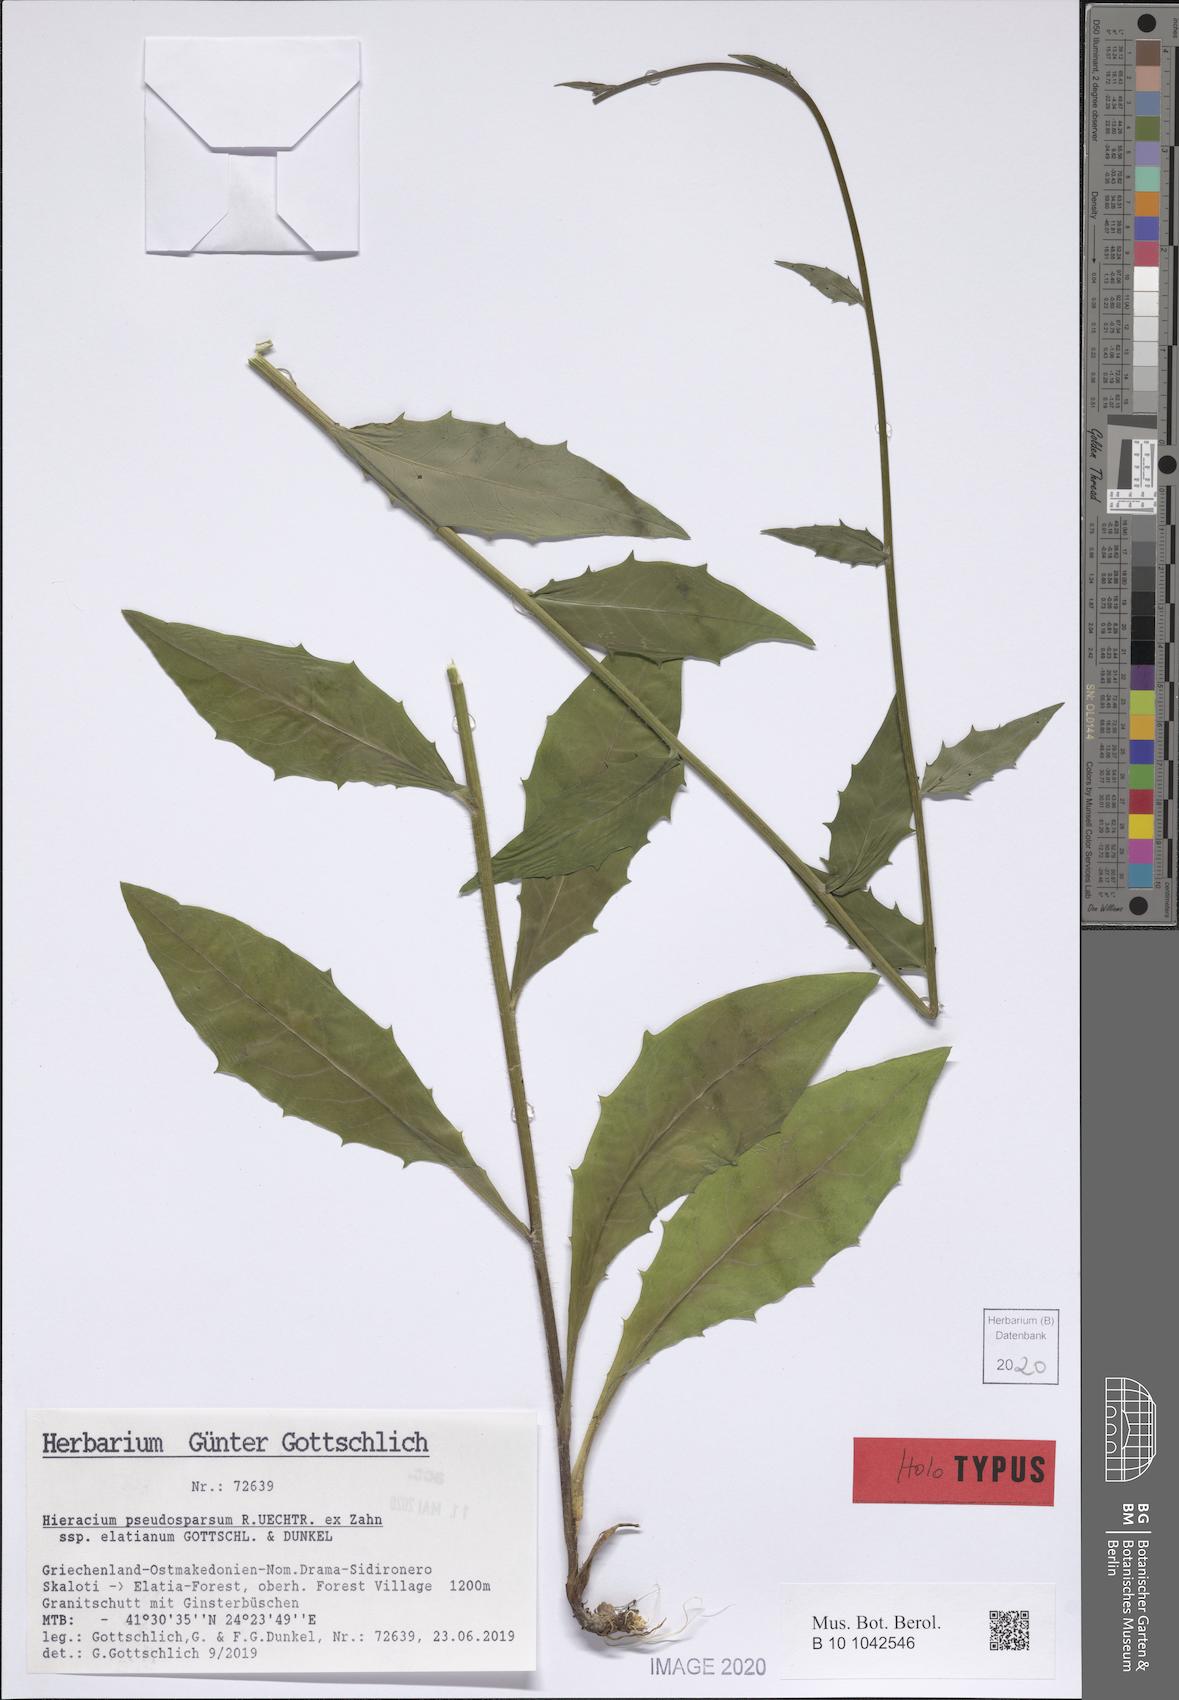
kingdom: Plantae
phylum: Tracheophyta
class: Magnoliopsida
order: Asterales
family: Asteraceae
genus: Hieracium
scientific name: Hieracium pseudosparsum
